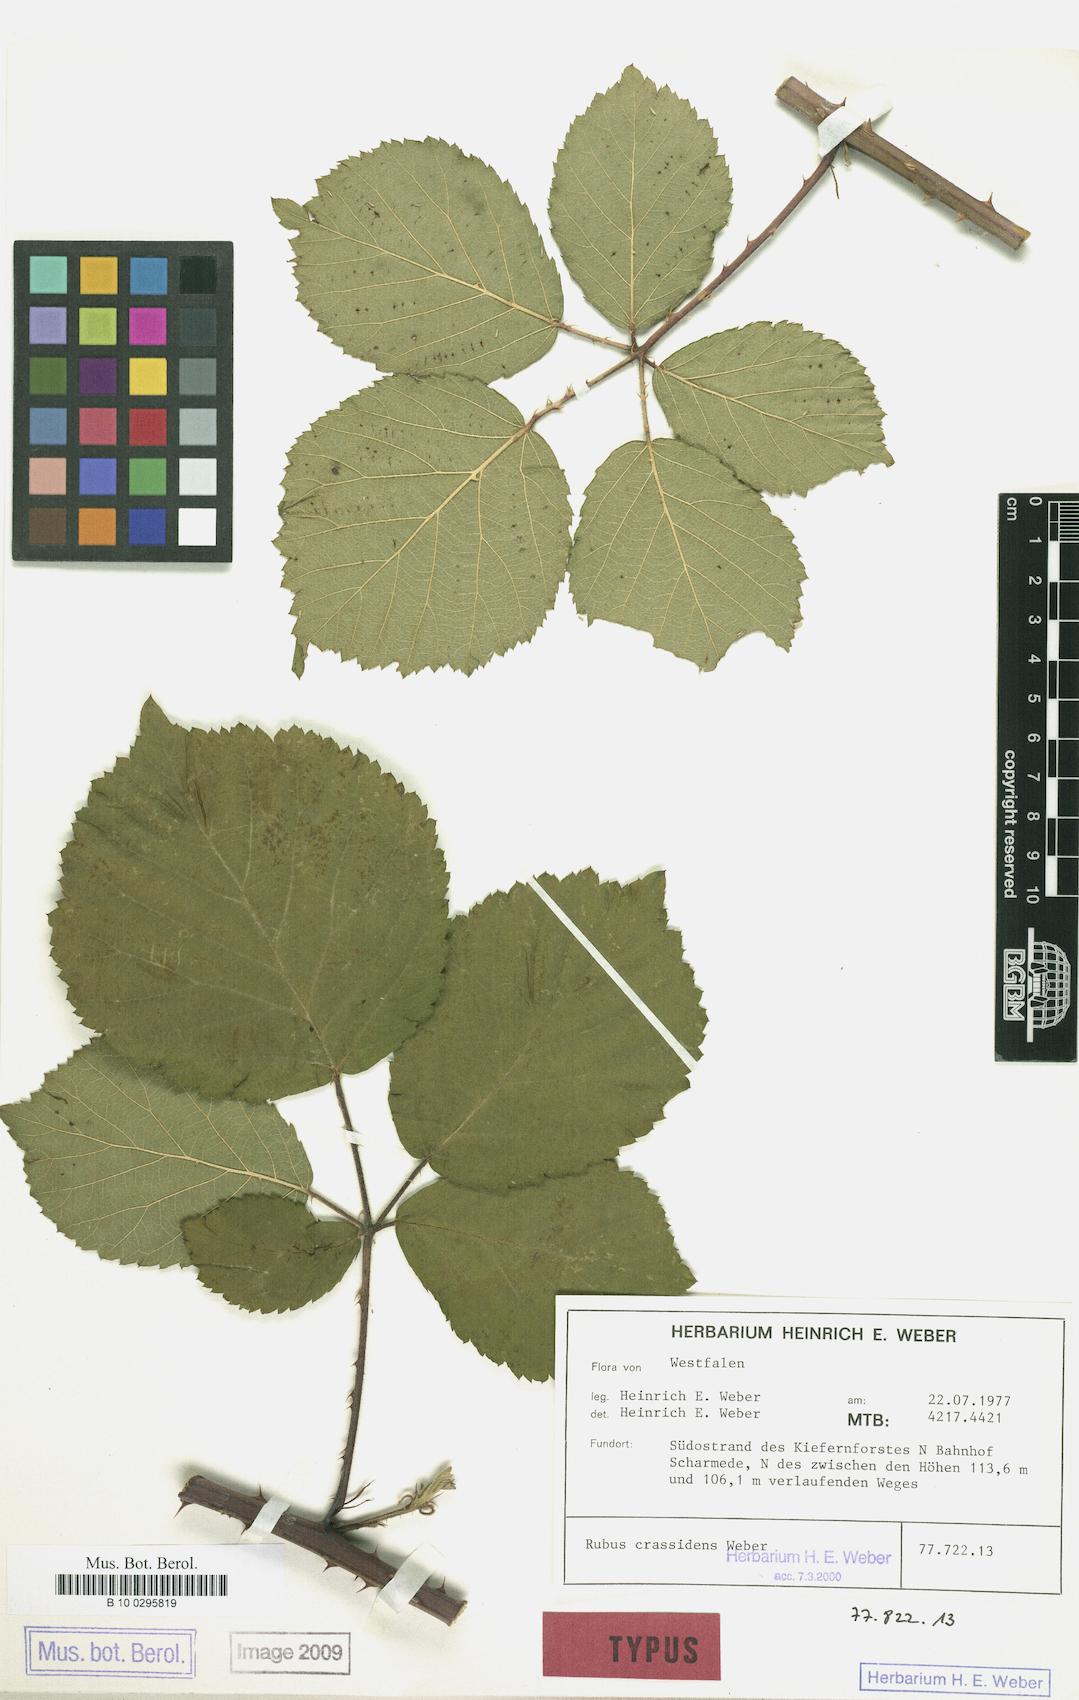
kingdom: Plantae
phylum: Tracheophyta
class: Magnoliopsida
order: Rosales
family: Rosaceae
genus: Rubus
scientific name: Rubus crassidens
